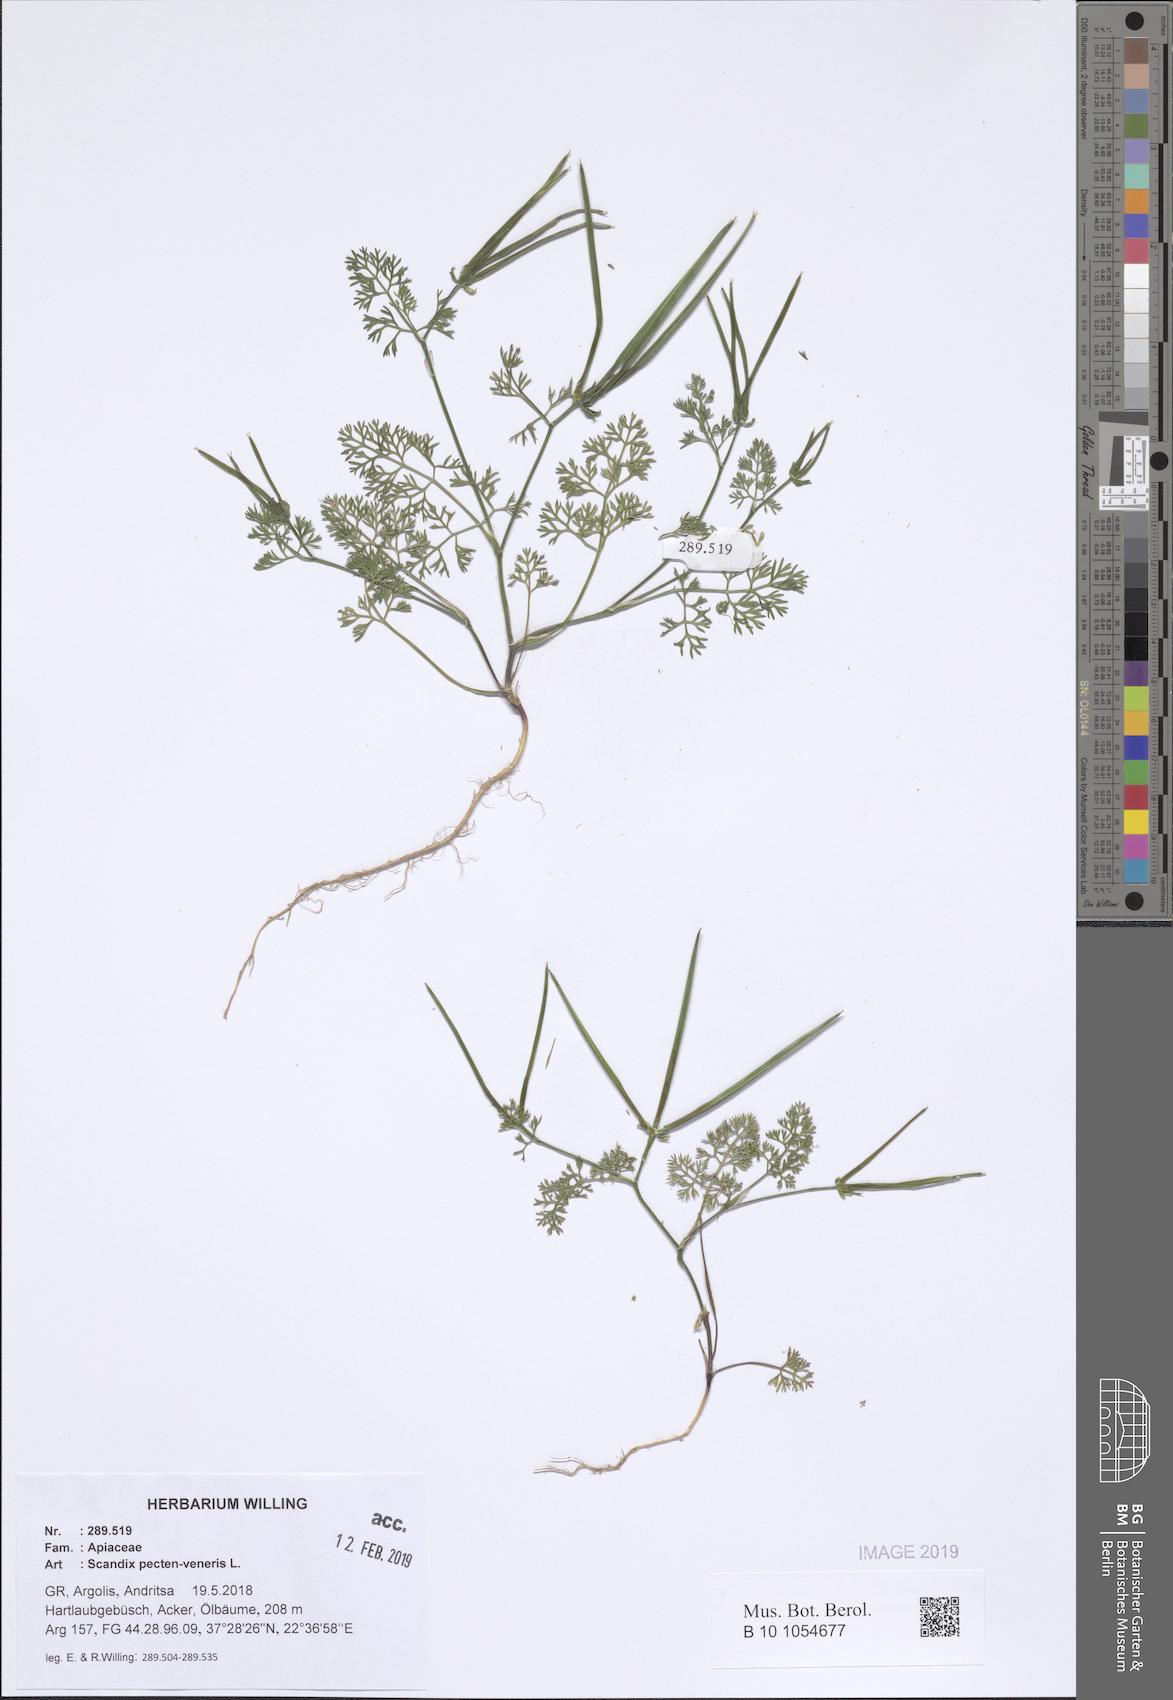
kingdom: Plantae
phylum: Tracheophyta
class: Magnoliopsida
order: Apiales
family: Apiaceae
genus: Scandix
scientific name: Scandix pecten-veneris
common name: Shepherd's-needle
